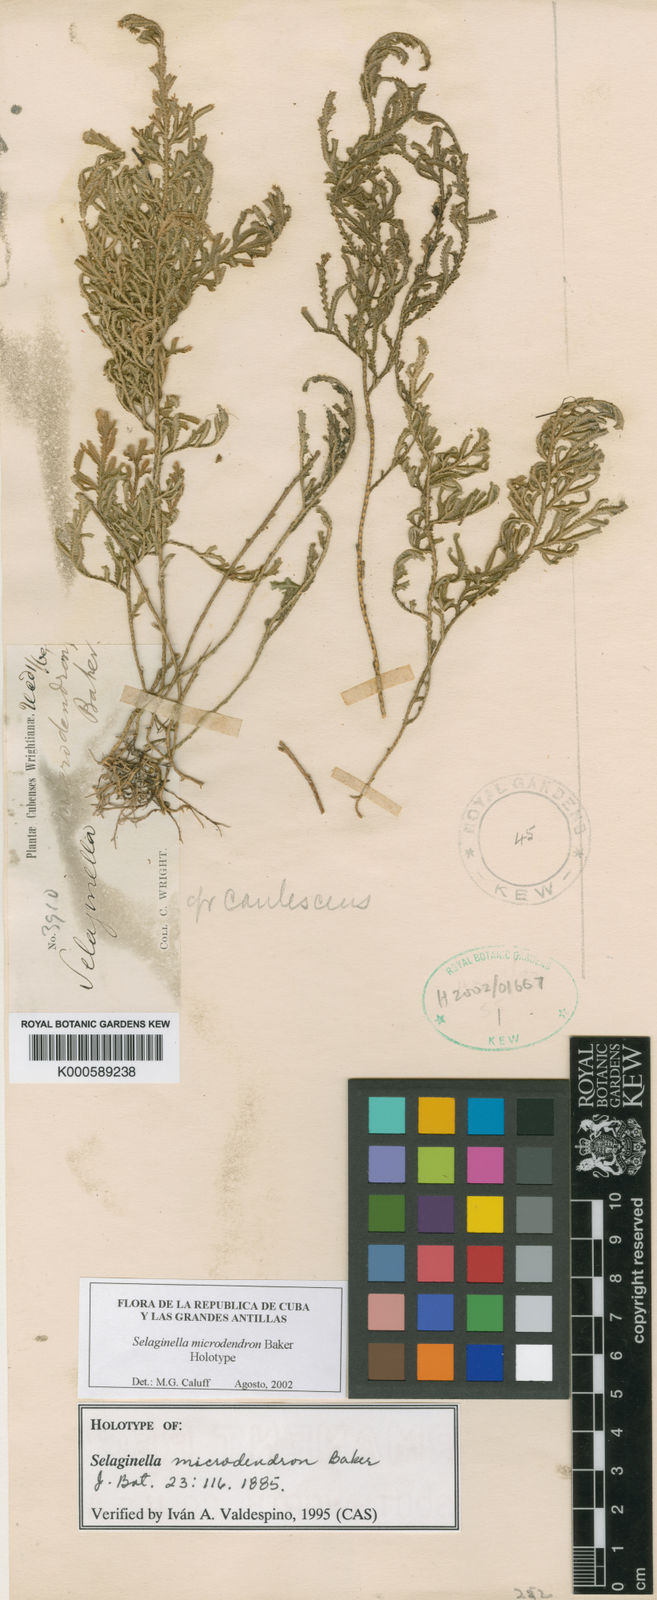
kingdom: Plantae
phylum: Tracheophyta
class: Lycopodiopsida
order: Selaginellales
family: Selaginellaceae
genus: Selaginella
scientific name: Selaginella microdendron
